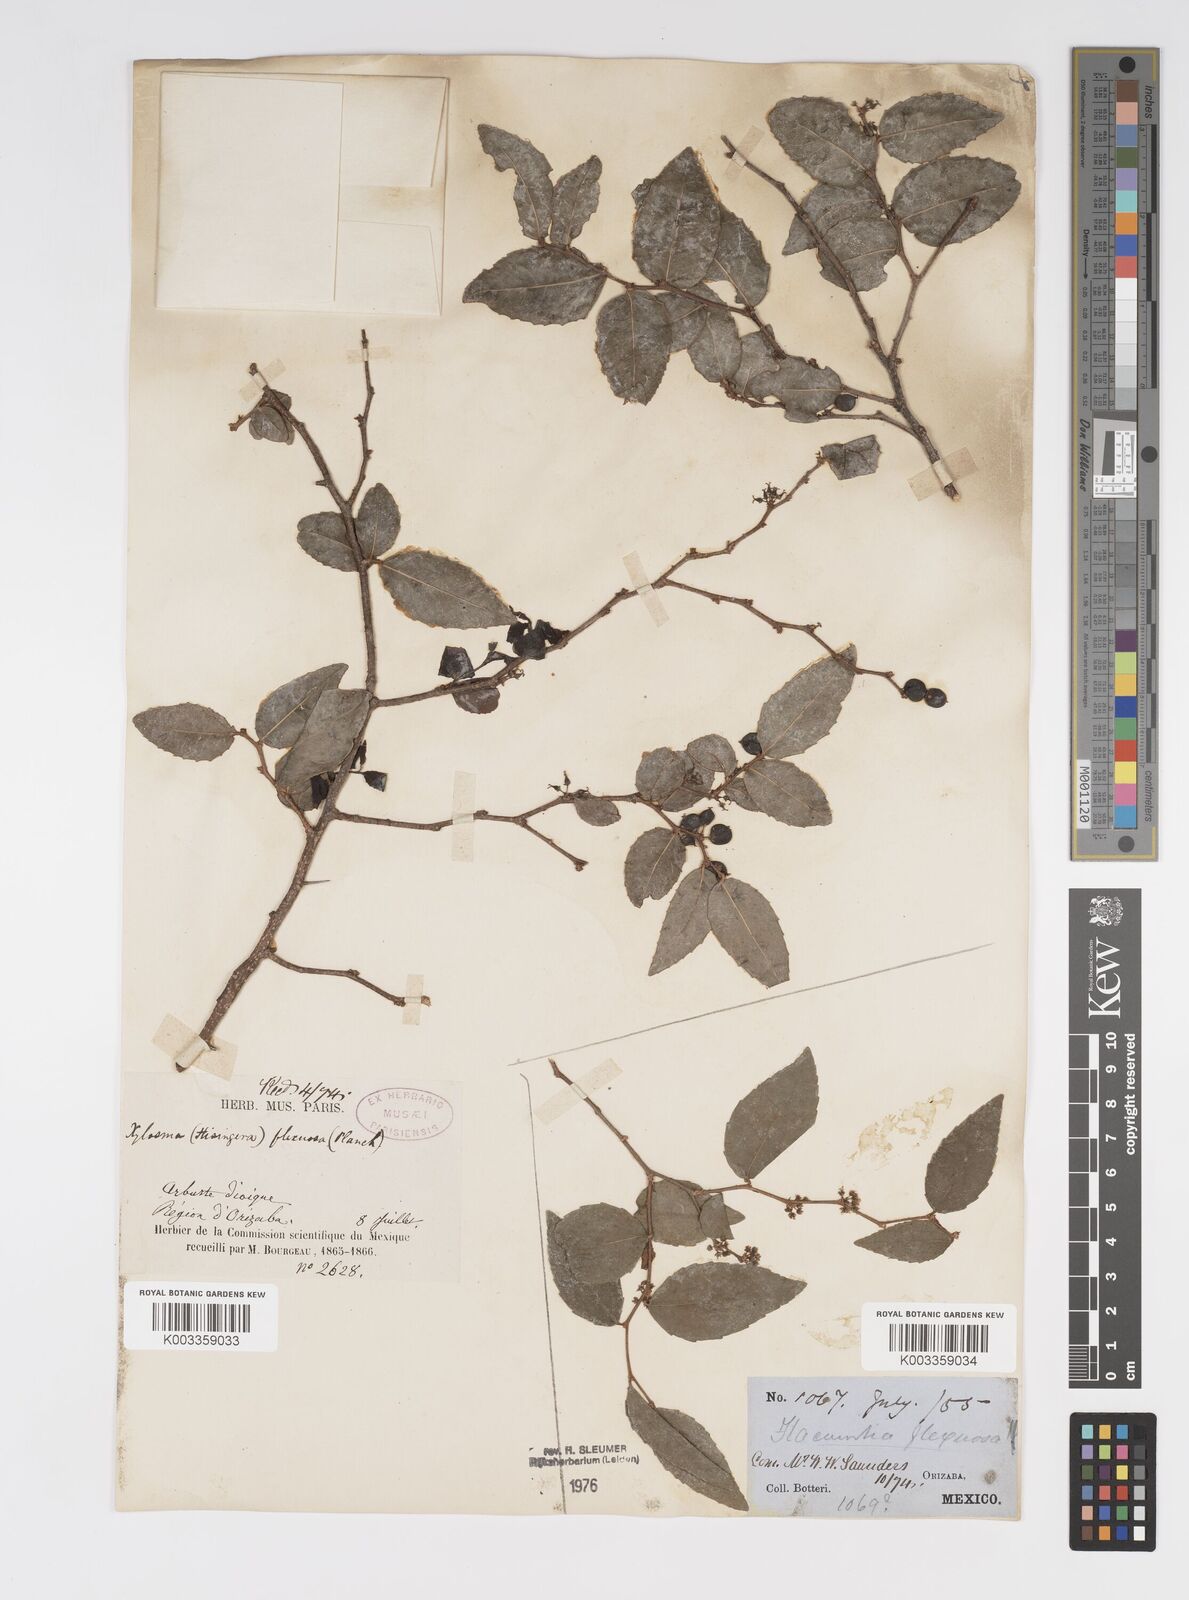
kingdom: Plantae
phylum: Tracheophyta
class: Magnoliopsida
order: Malpighiales
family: Salicaceae
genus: Xylosma
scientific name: Xylosma flexuosa
